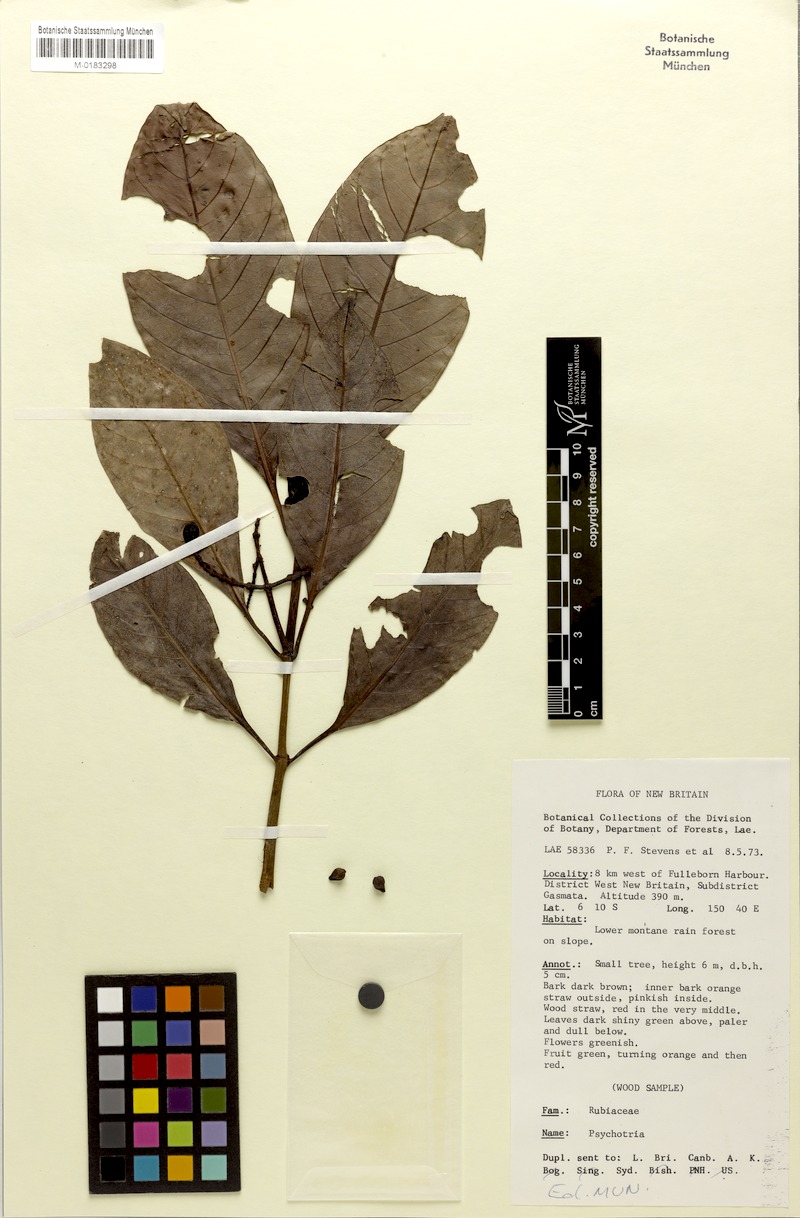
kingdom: Plantae
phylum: Tracheophyta
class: Magnoliopsida
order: Gentianales
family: Rubiaceae
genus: Psychotria
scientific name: Psychotria leleana
